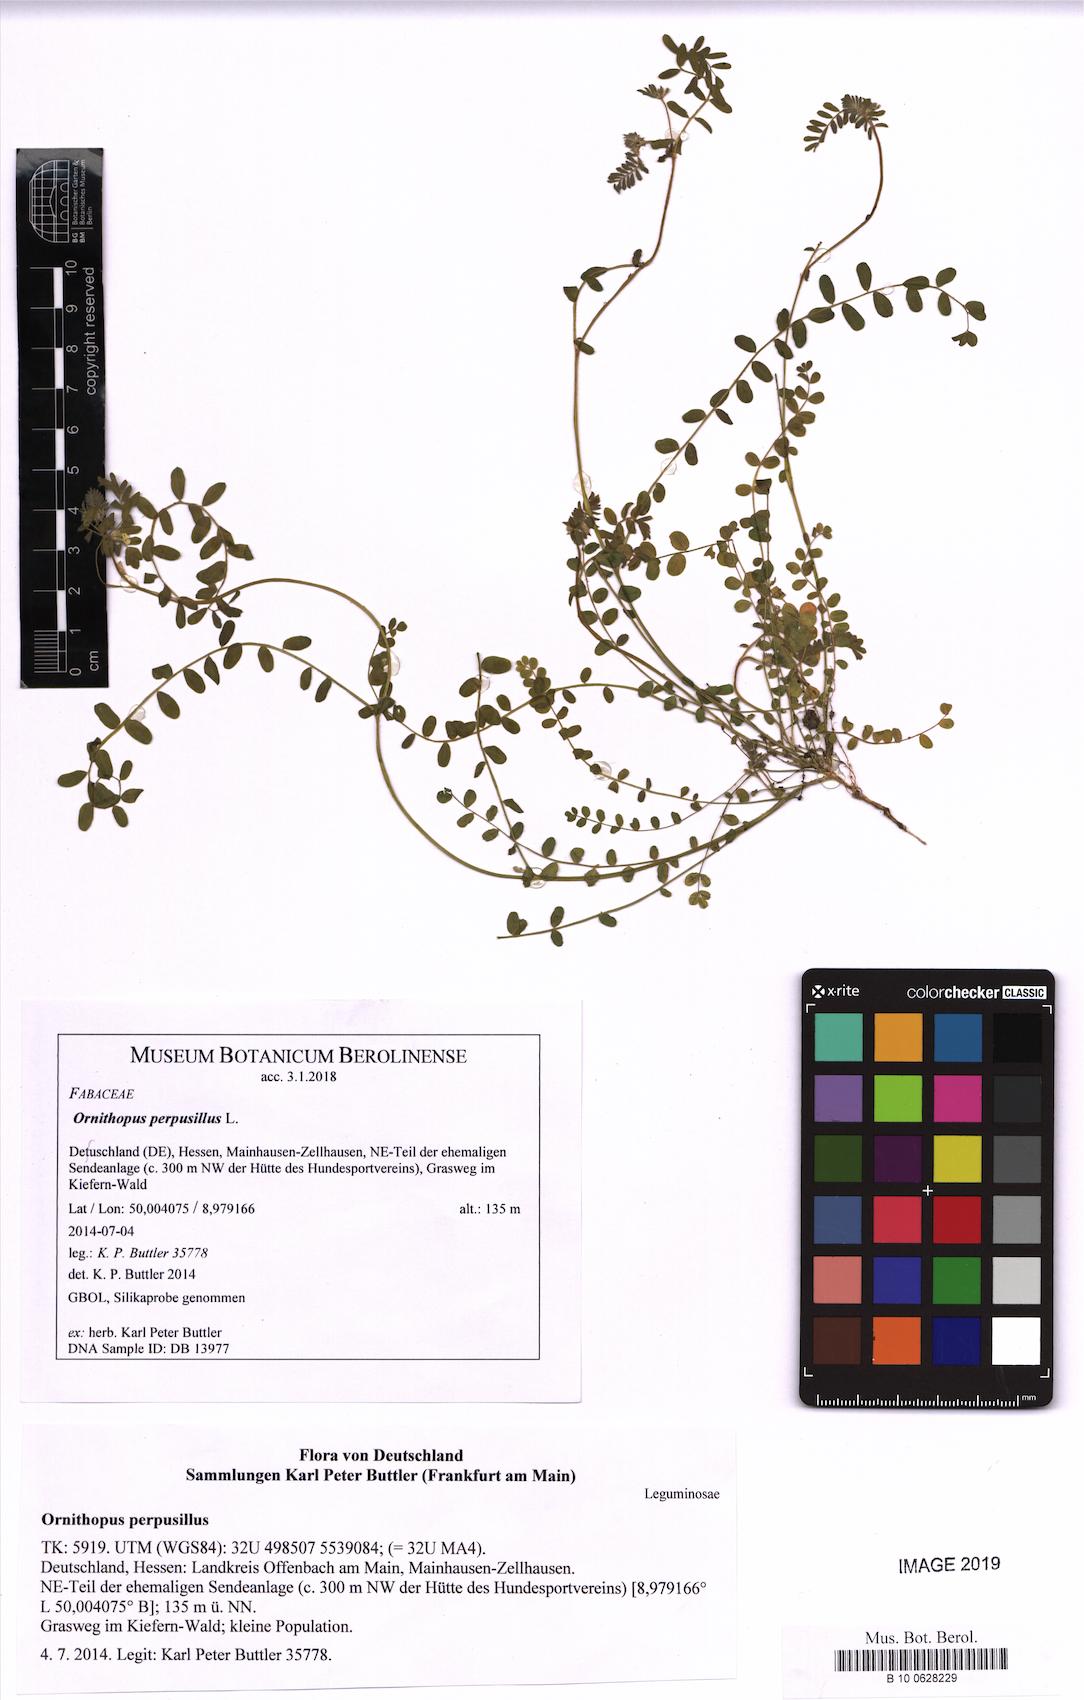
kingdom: Plantae
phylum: Tracheophyta
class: Magnoliopsida
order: Fabales
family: Fabaceae
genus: Ornithopus
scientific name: Ornithopus perpusillus
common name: Bird's-foot
